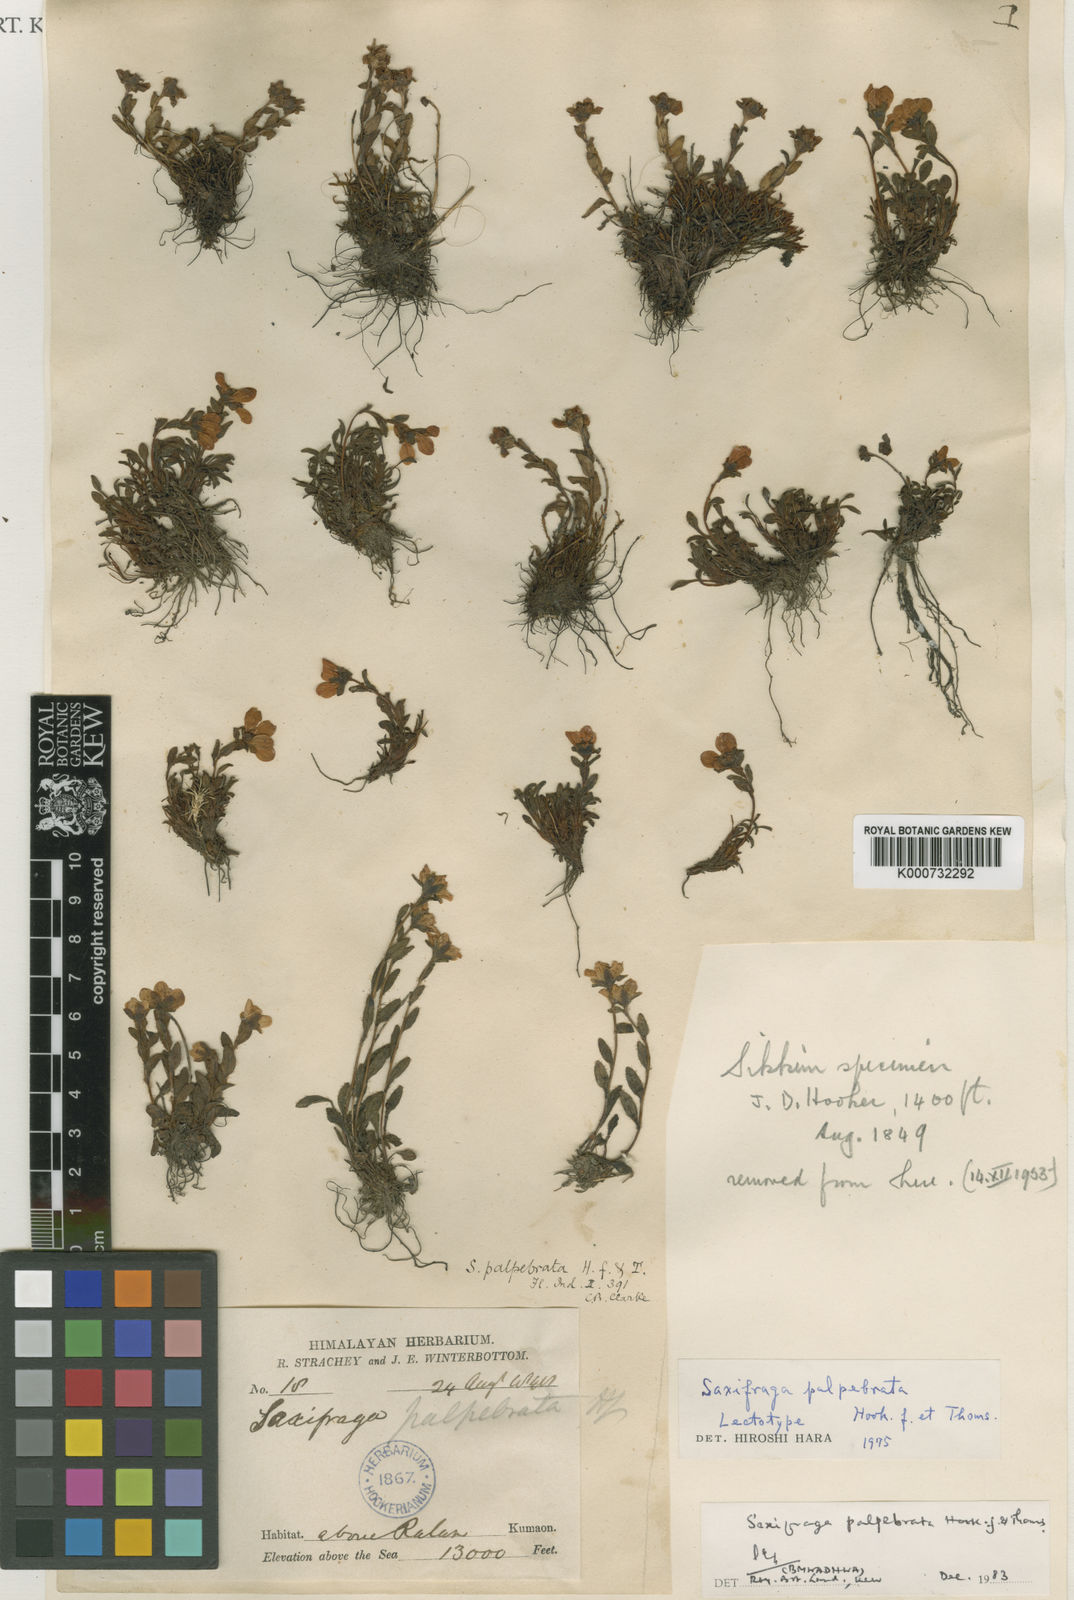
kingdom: Plantae
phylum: Tracheophyta
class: Magnoliopsida
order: Saxifragales
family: Saxifragaceae
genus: Saxifraga
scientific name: Saxifraga palpebrata
